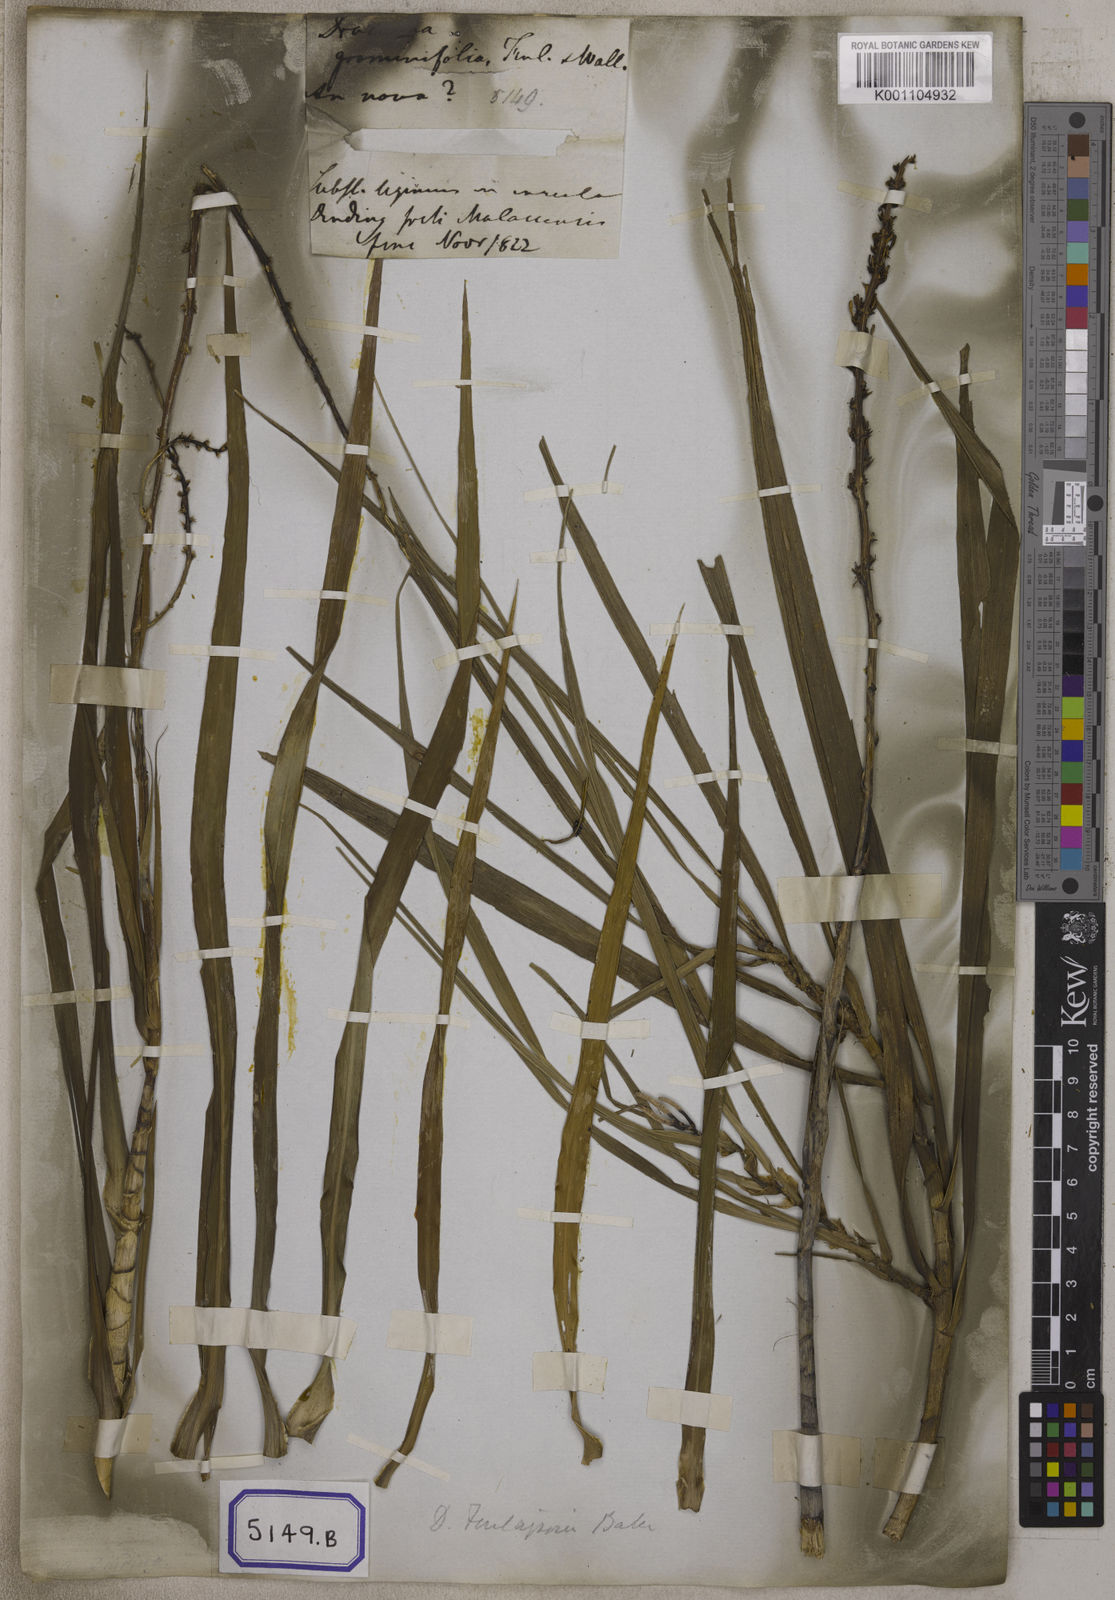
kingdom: Plantae
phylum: Tracheophyta
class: Liliopsida
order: Asparagales
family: Asparagaceae
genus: Dracaena
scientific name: Dracaena
